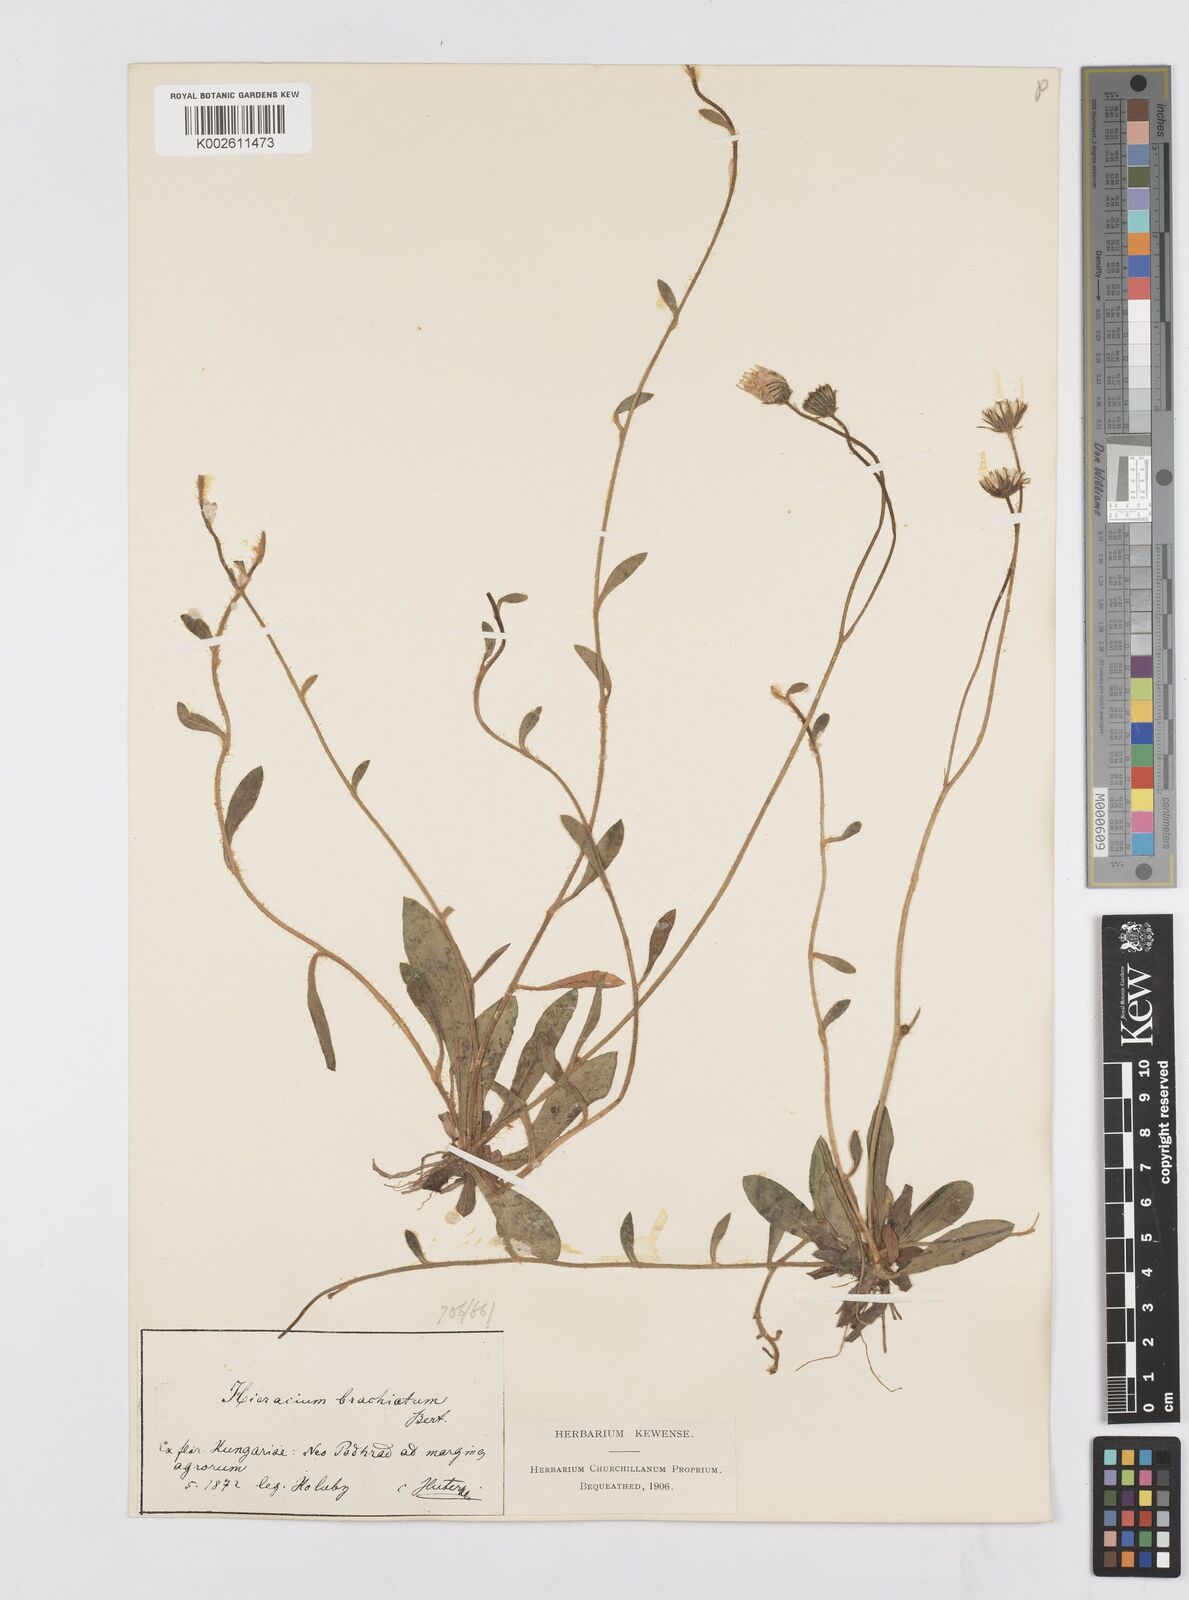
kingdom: Plantae
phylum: Tracheophyta
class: Magnoliopsida
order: Asterales
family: Asteraceae
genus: Pilosella
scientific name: Pilosella acutifolia
